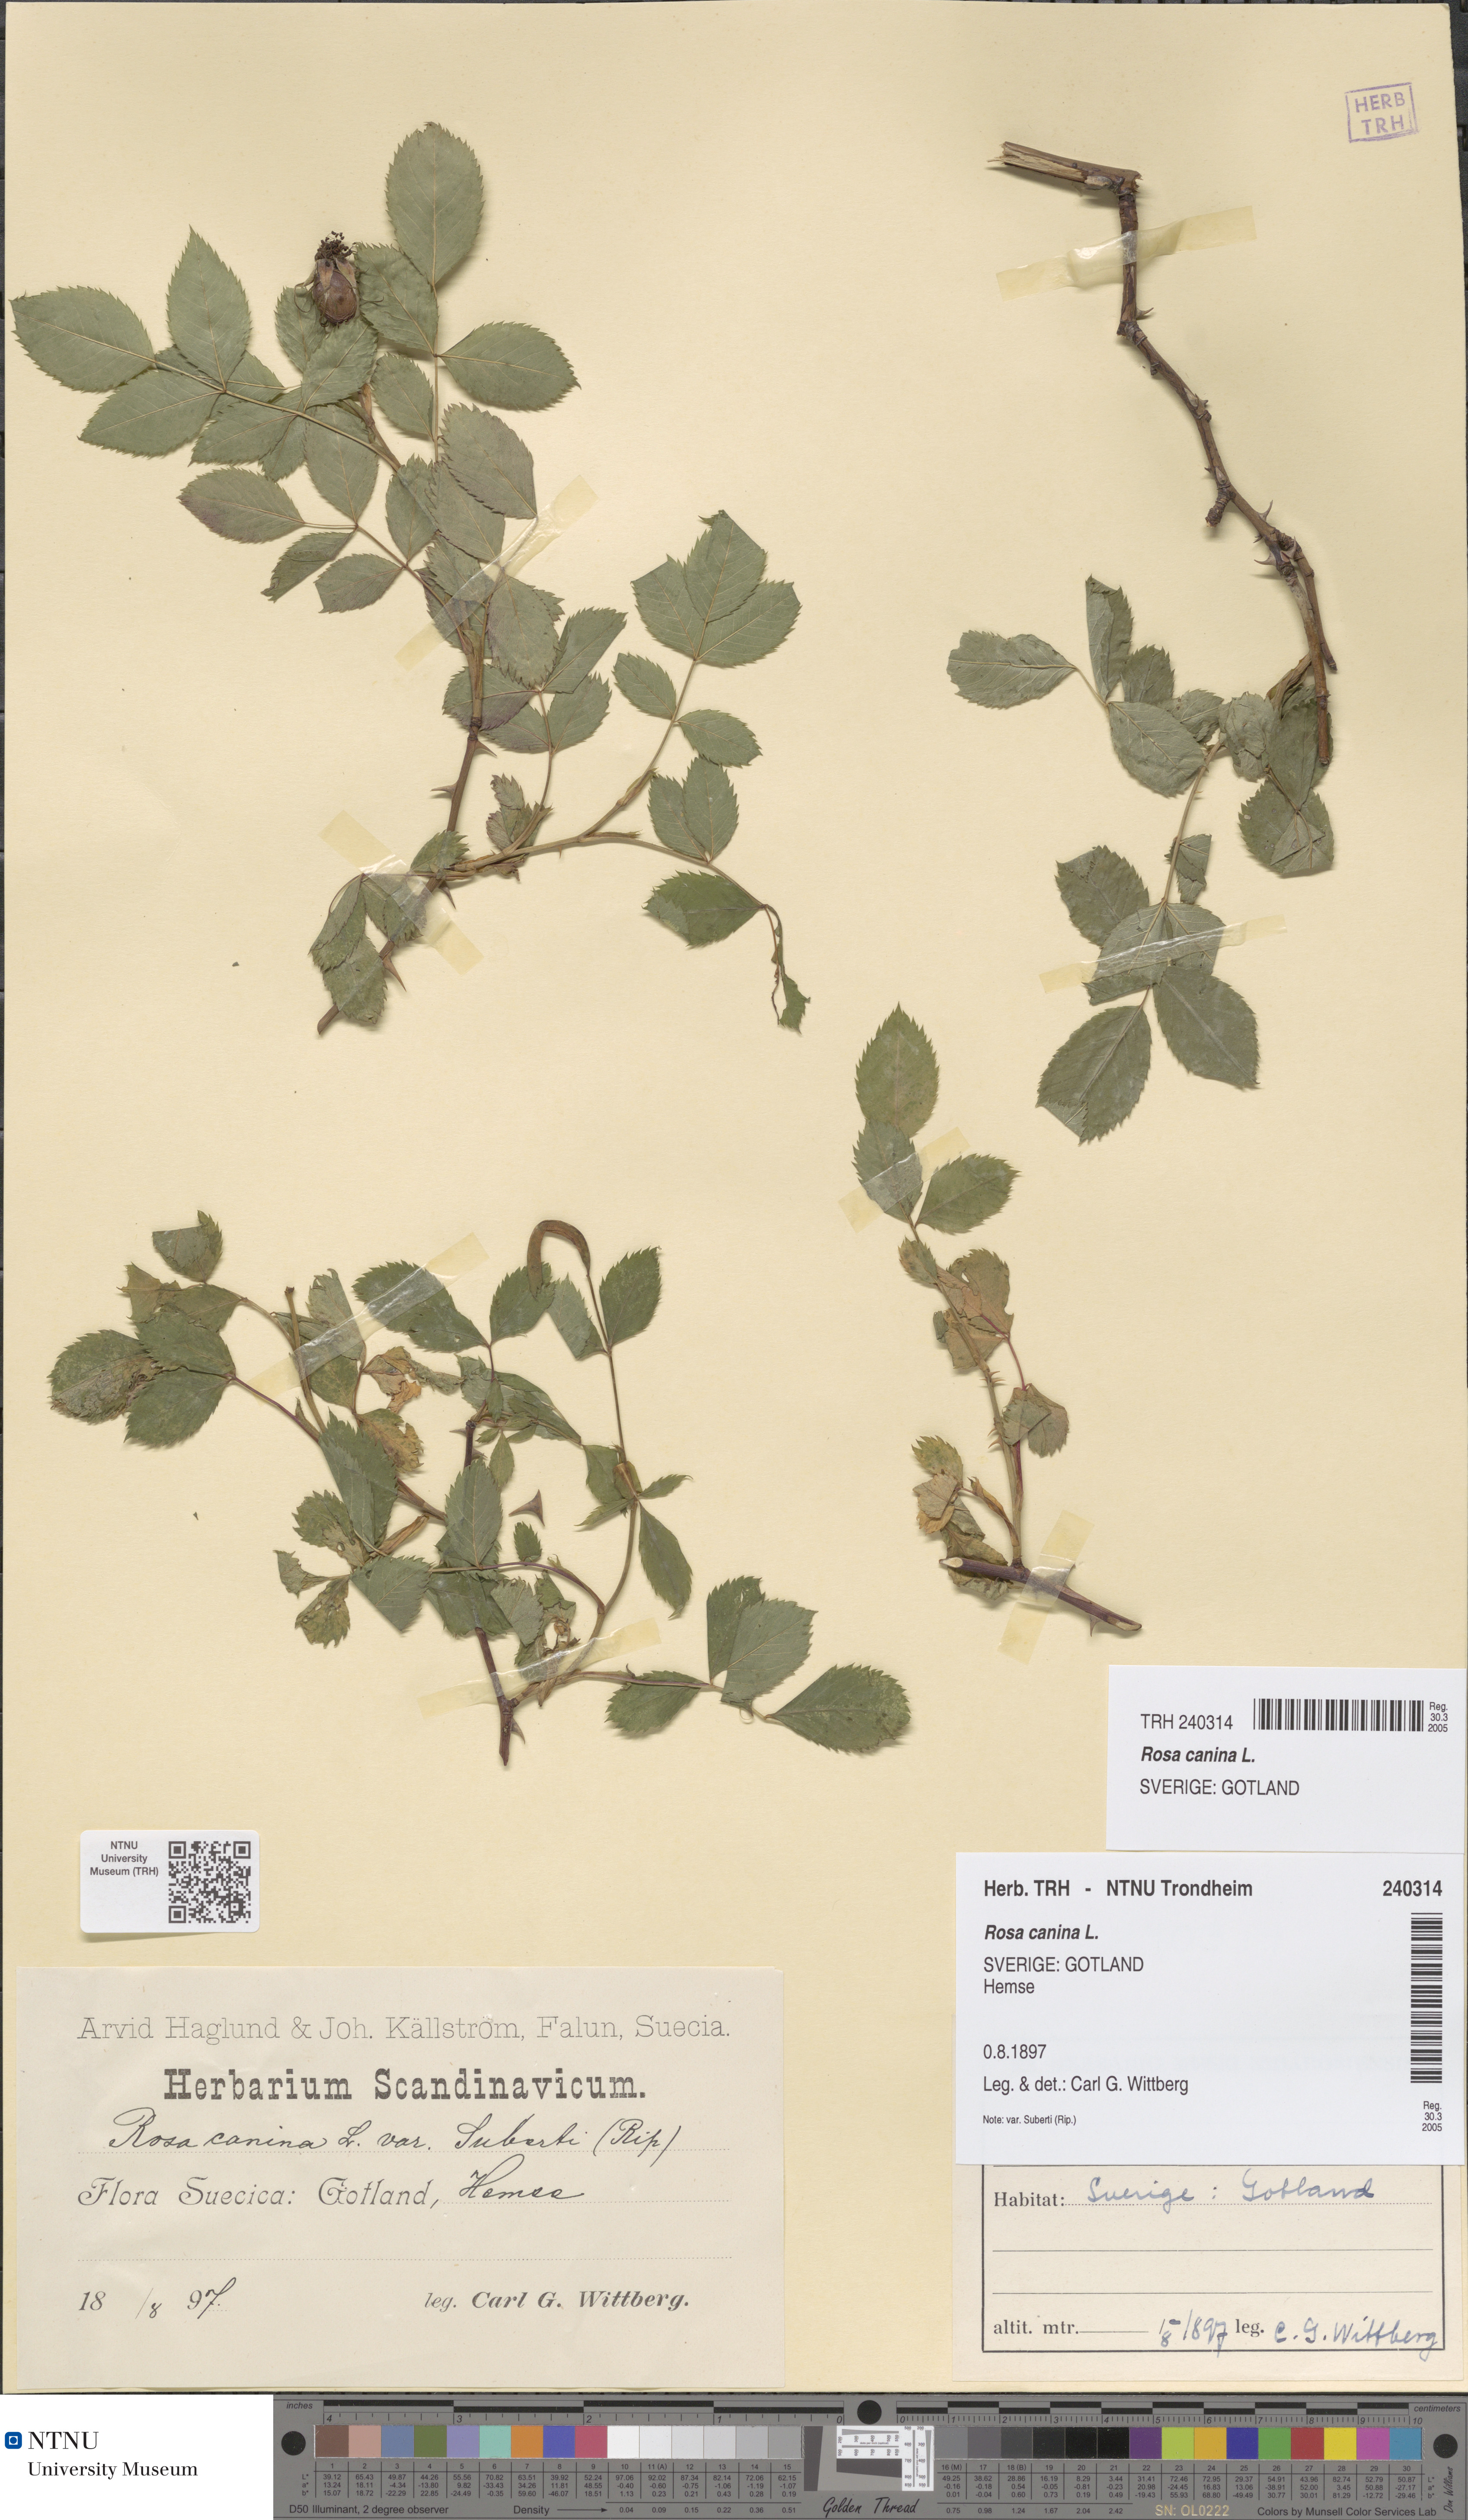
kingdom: Plantae
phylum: Tracheophyta
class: Magnoliopsida
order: Rosales
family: Rosaceae
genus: Rosa
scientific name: Rosa canina
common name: Dog rose
